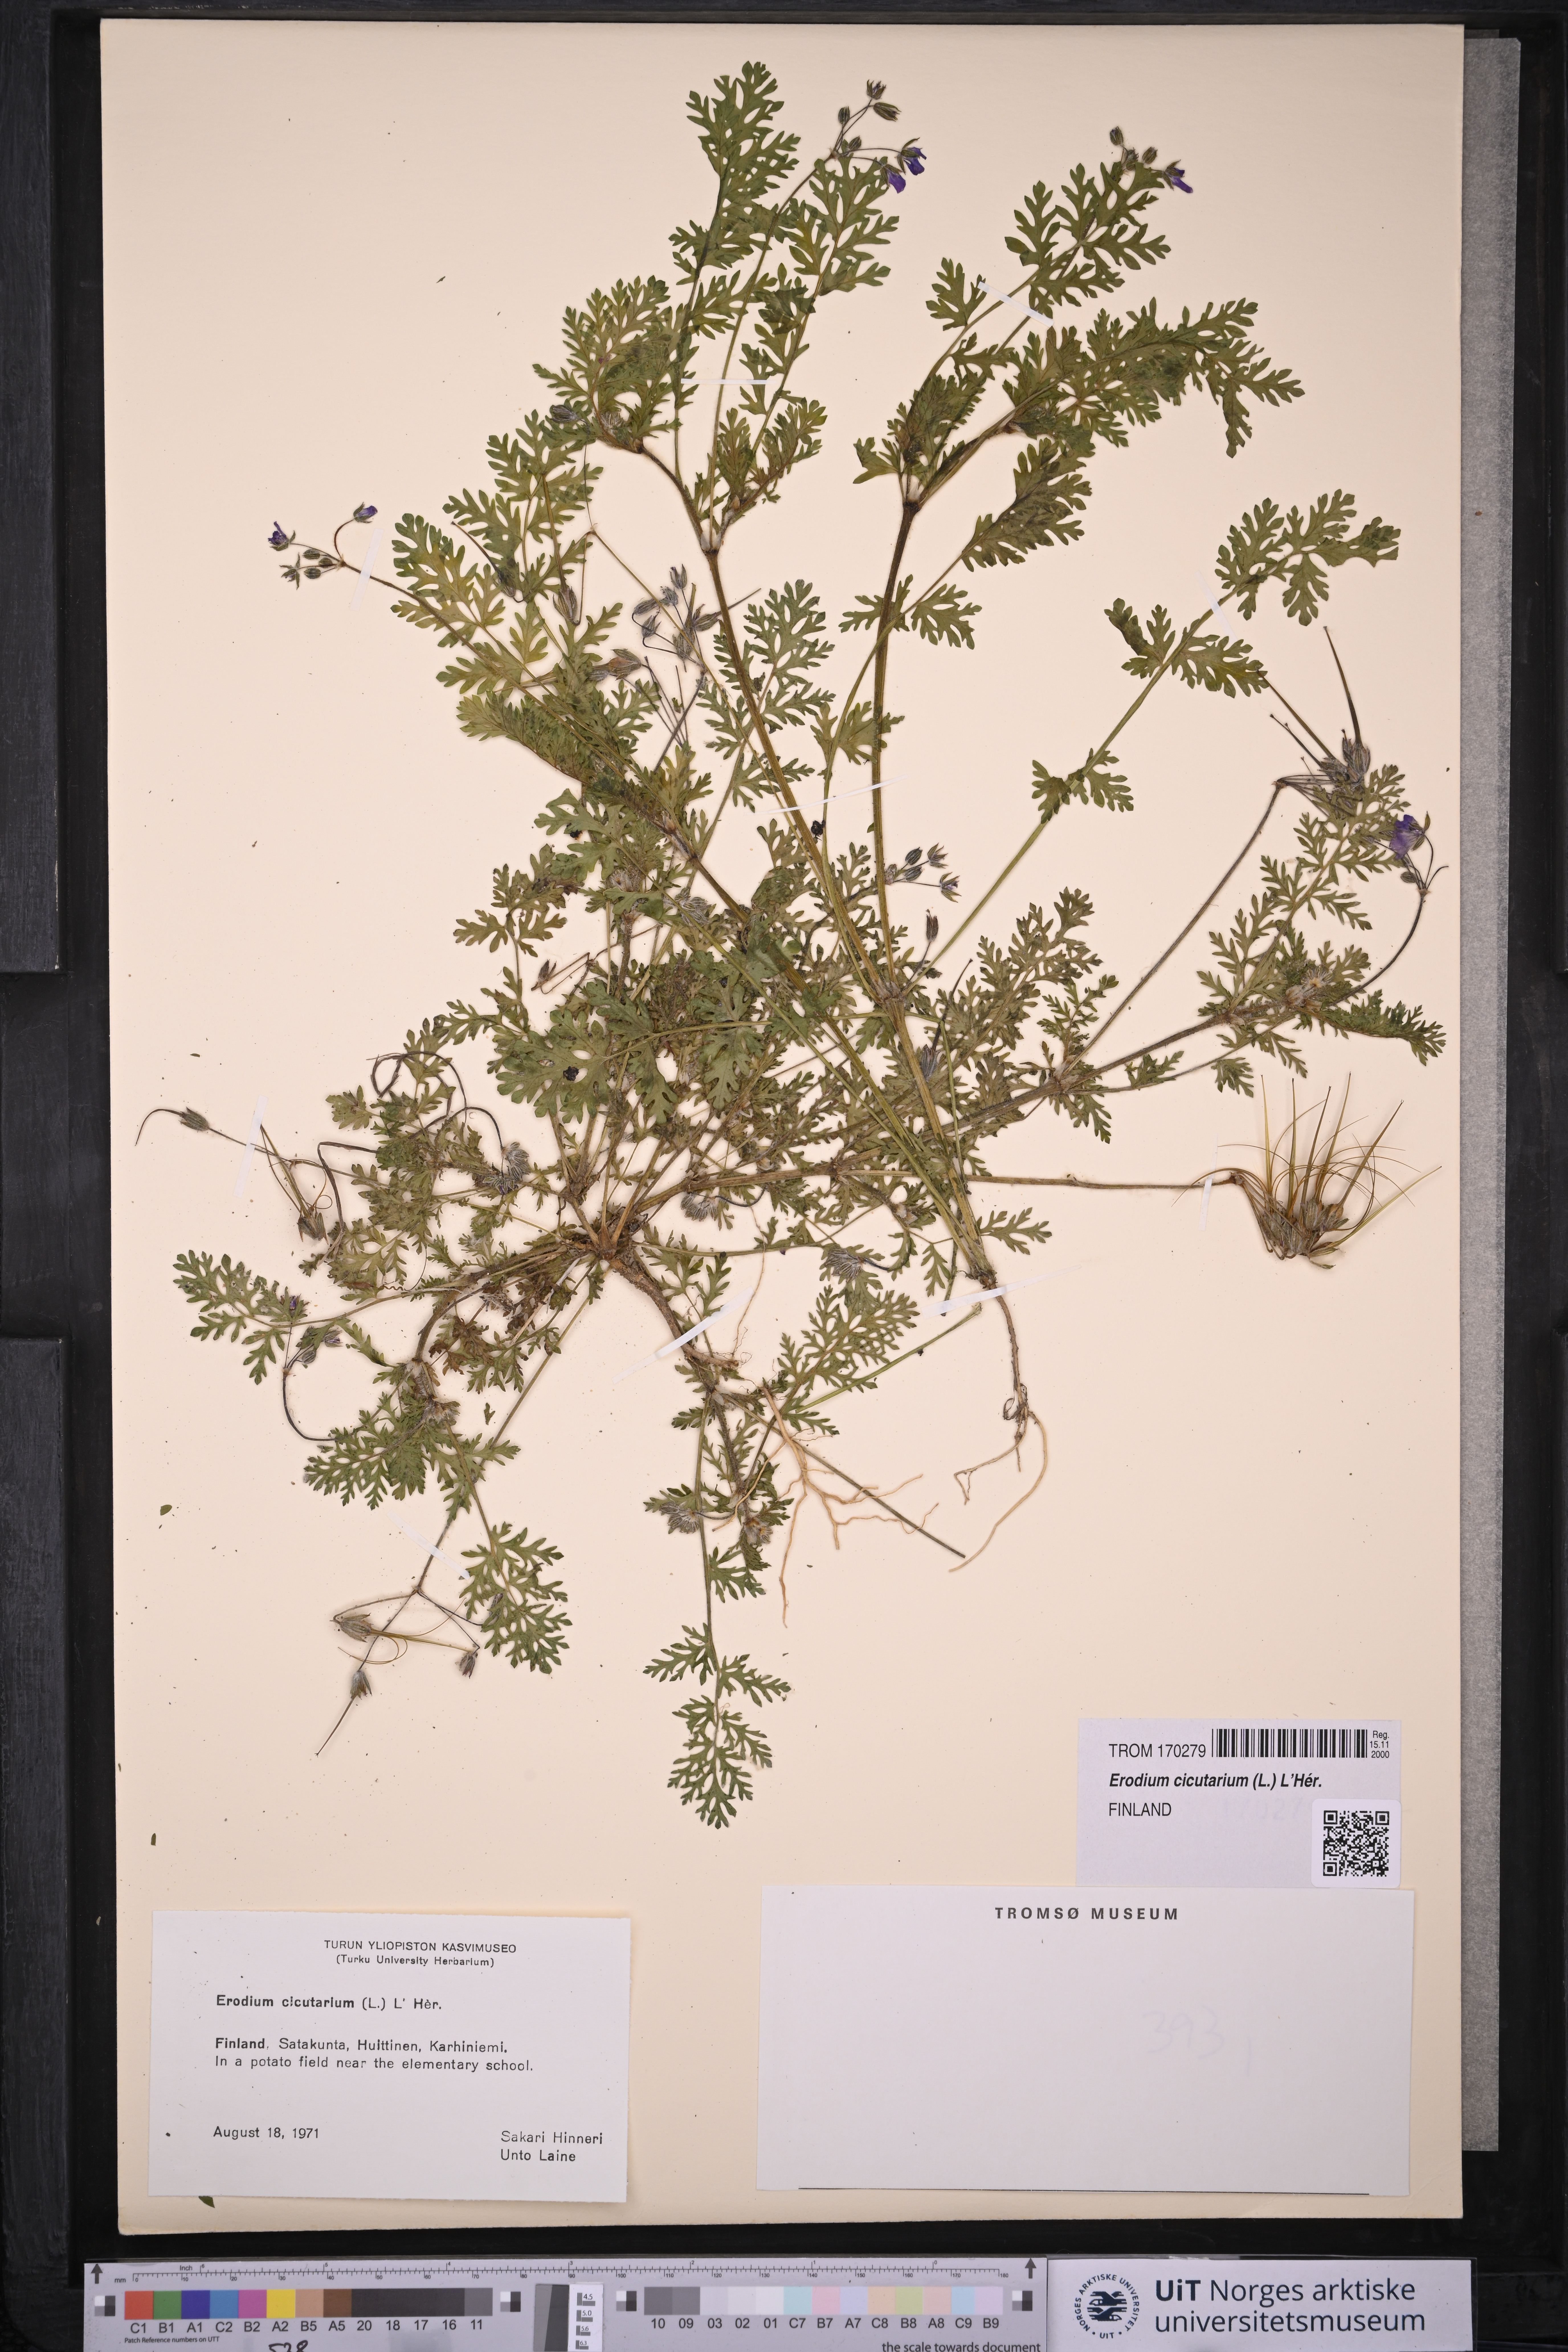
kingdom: Plantae
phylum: Tracheophyta
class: Magnoliopsida
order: Geraniales
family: Geraniaceae
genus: Erodium
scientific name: Erodium cicutarium
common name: Common stork's-bill
